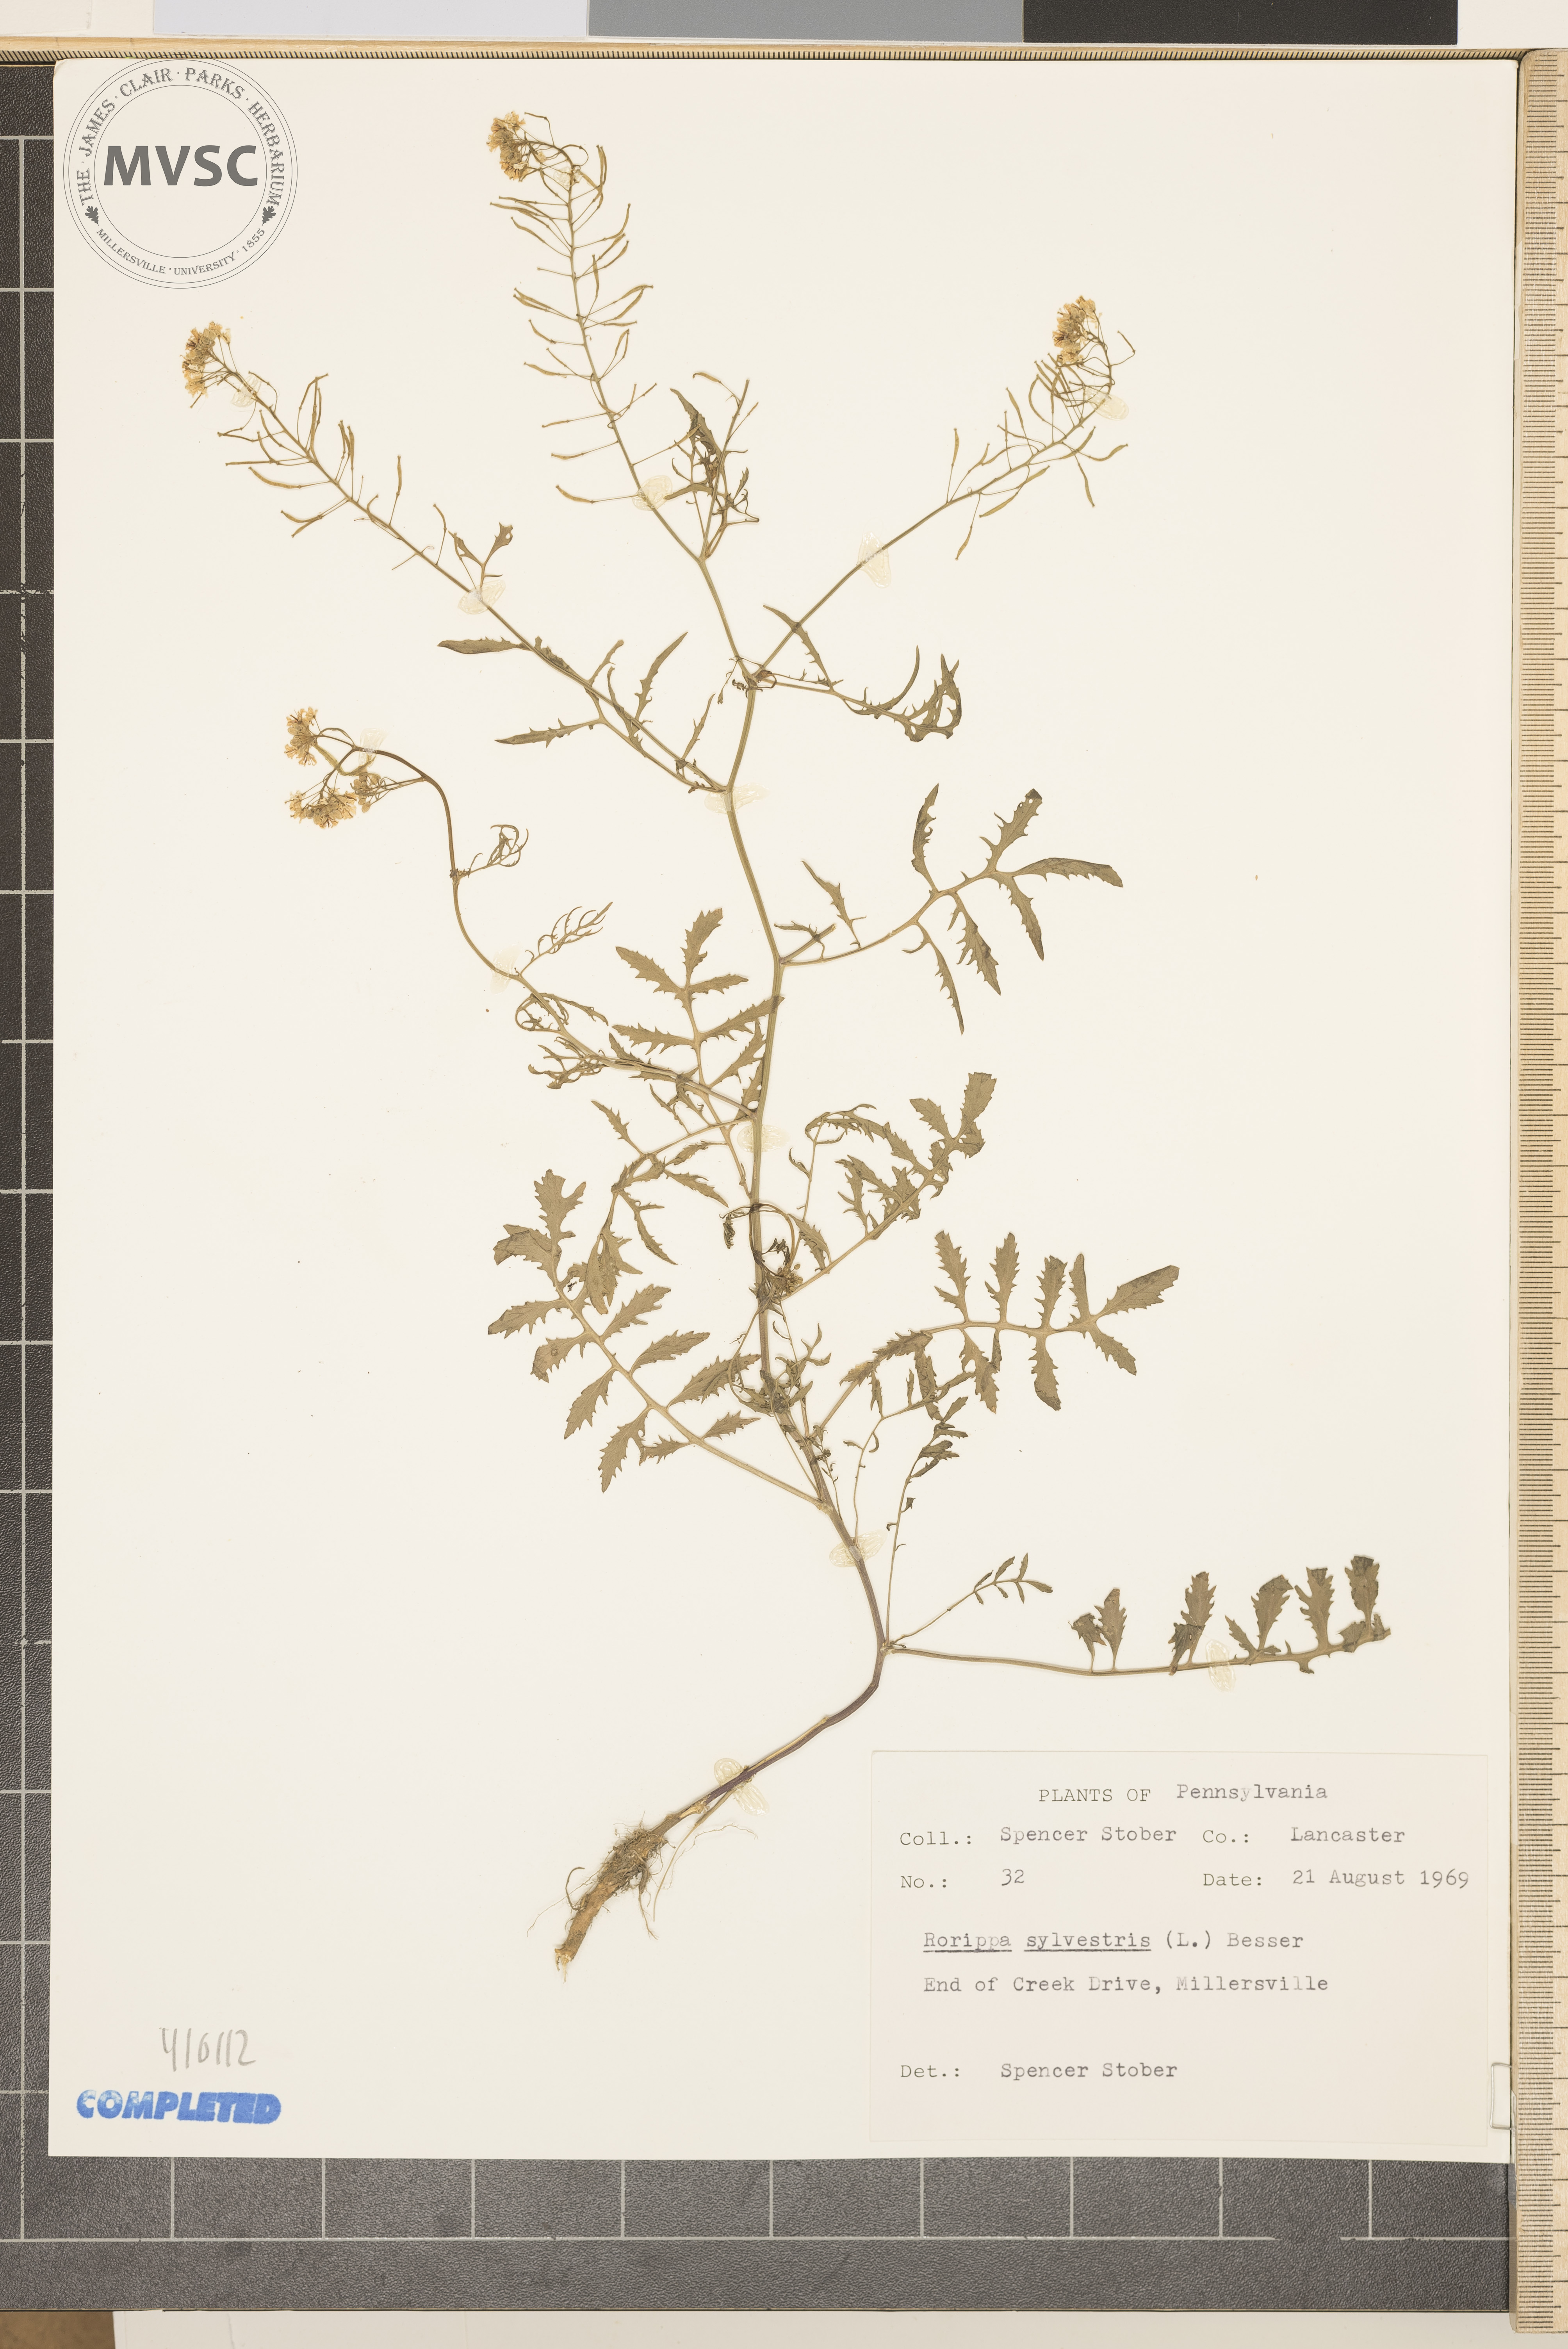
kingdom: Plantae
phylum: Tracheophyta
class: Magnoliopsida
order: Brassicales
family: Brassicaceae
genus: Rorippa
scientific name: Rorippa sylvestris
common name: creeping yellowcress
